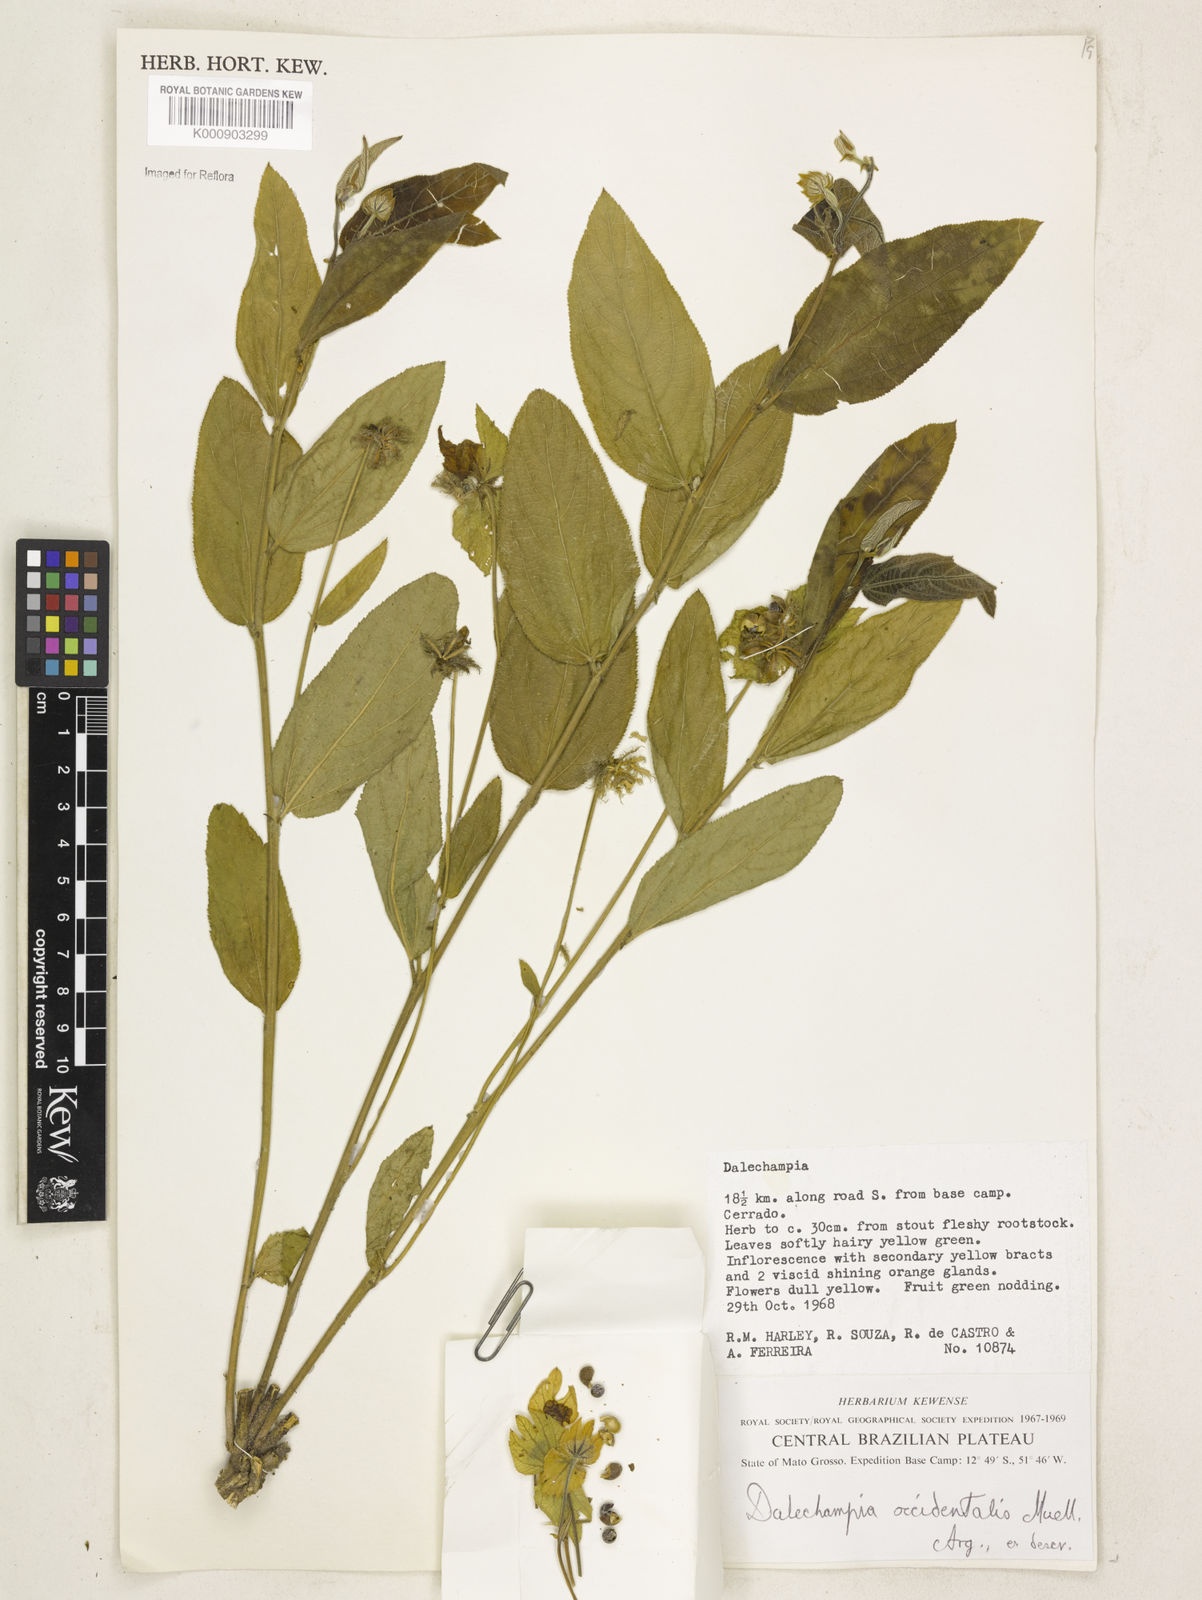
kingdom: Plantae
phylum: Tracheophyta
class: Magnoliopsida
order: Malpighiales
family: Euphorbiaceae
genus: Dalechampia
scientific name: Dalechampia
